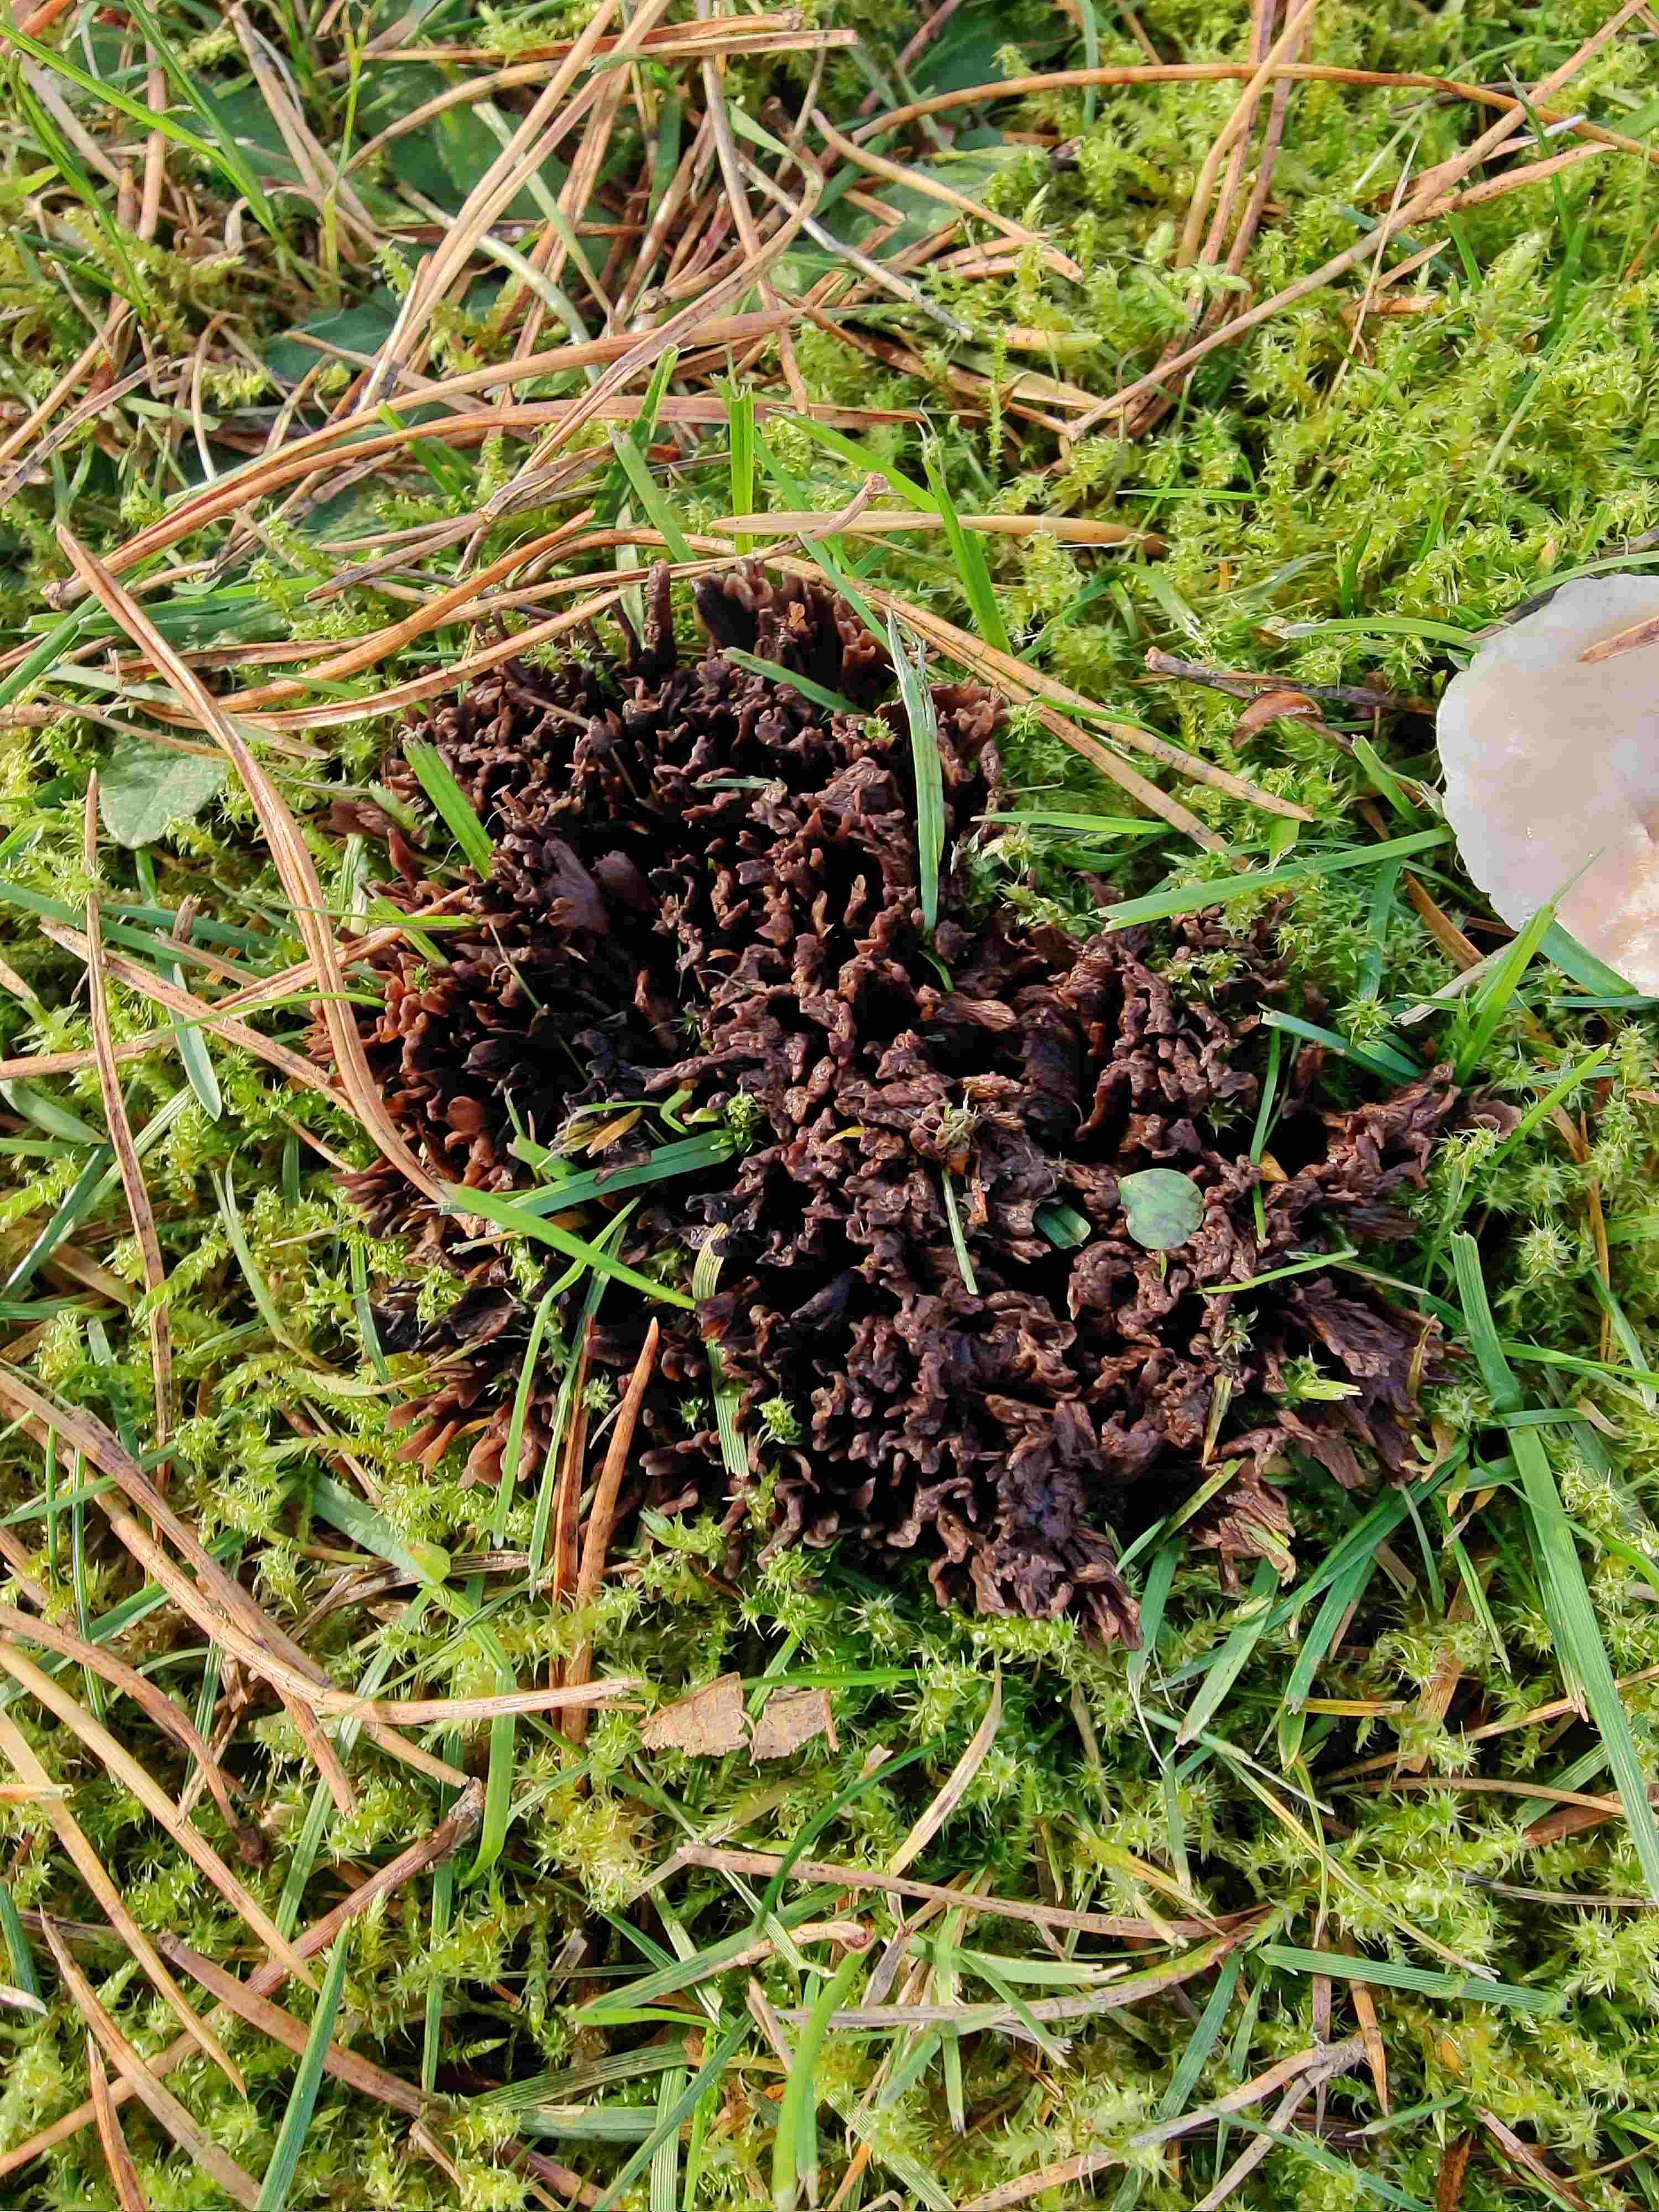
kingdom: Fungi
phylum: Basidiomycota
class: Agaricomycetes
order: Thelephorales
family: Thelephoraceae
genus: Thelephora
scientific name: Thelephora palmata
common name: grenet frynsesvamp
